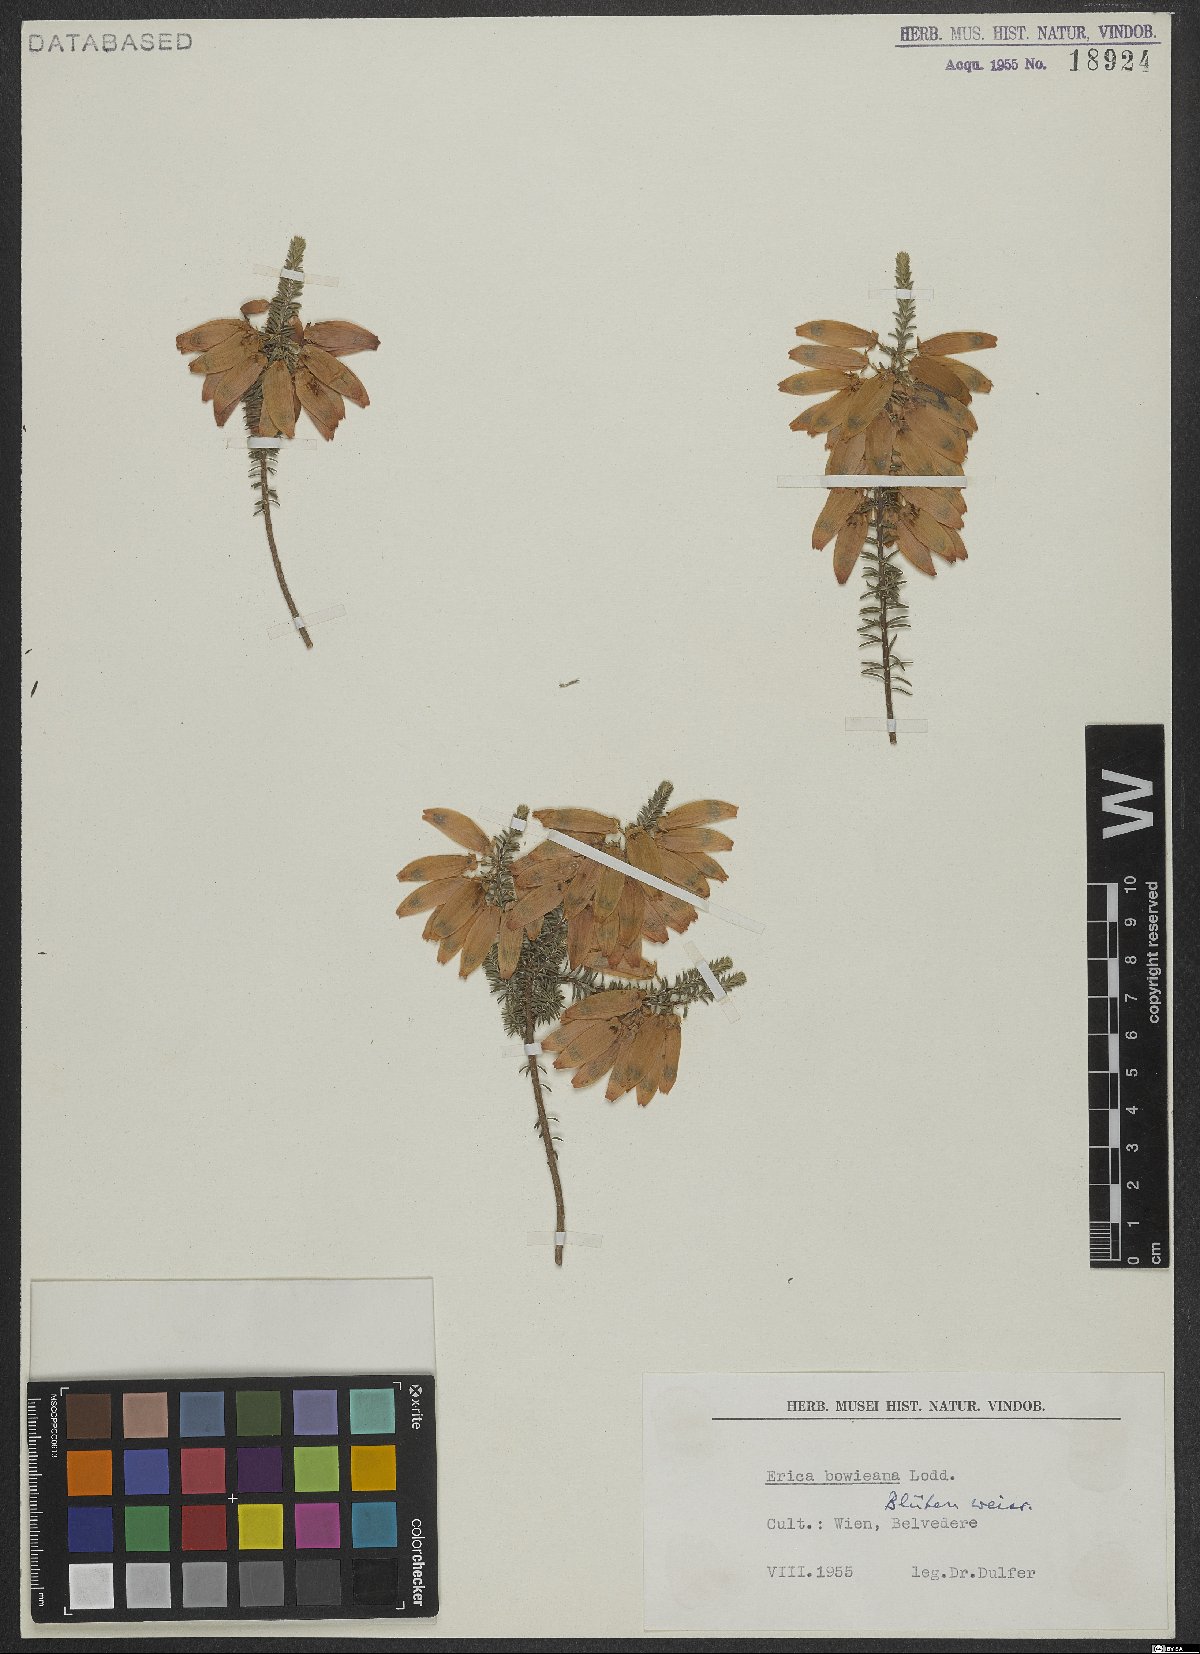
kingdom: Plantae
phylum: Tracheophyta
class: Magnoliopsida
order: Ericales
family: Ericaceae
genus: Erica
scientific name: Erica bauera
